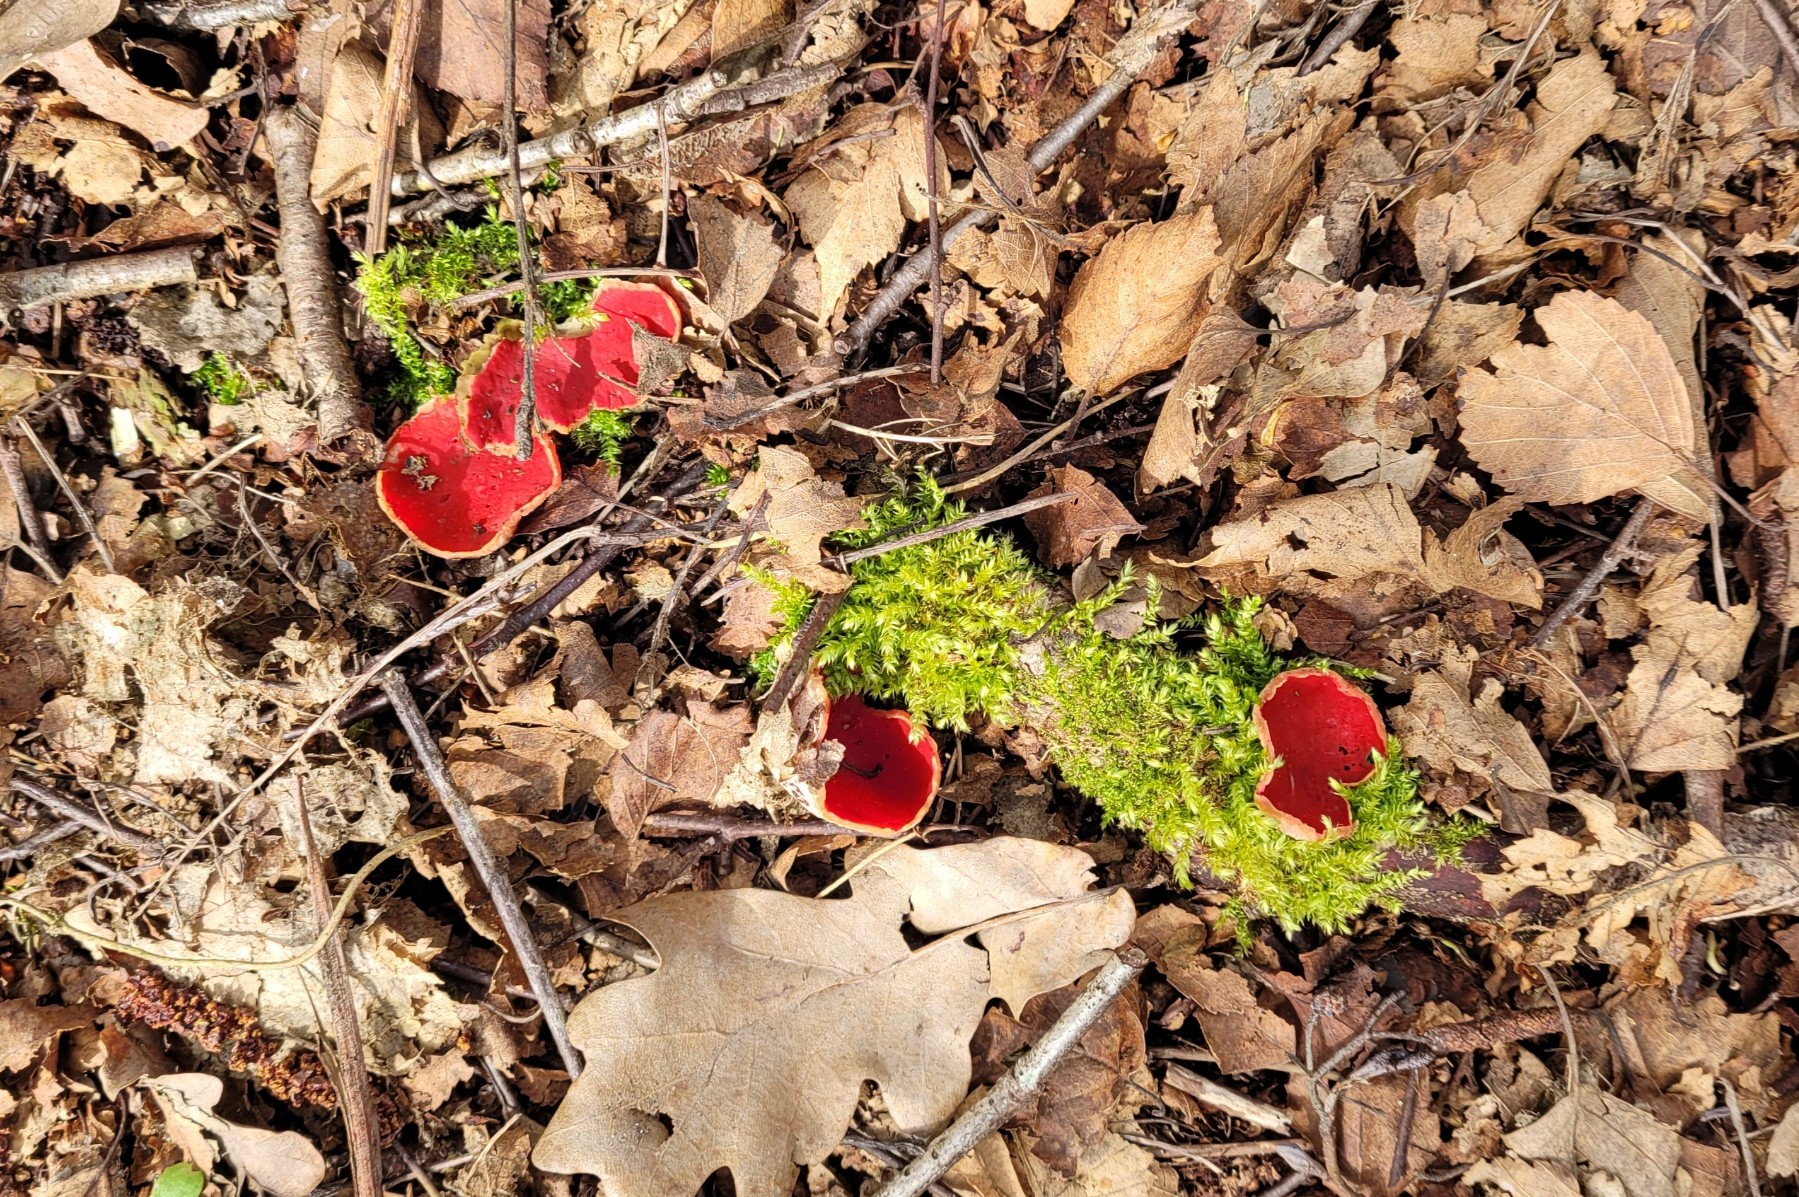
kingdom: Fungi
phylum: Ascomycota
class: Pezizomycetes
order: Pezizales
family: Sarcoscyphaceae
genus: Sarcoscypha
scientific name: Sarcoscypha austriaca
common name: krølhåret pragtbæger
